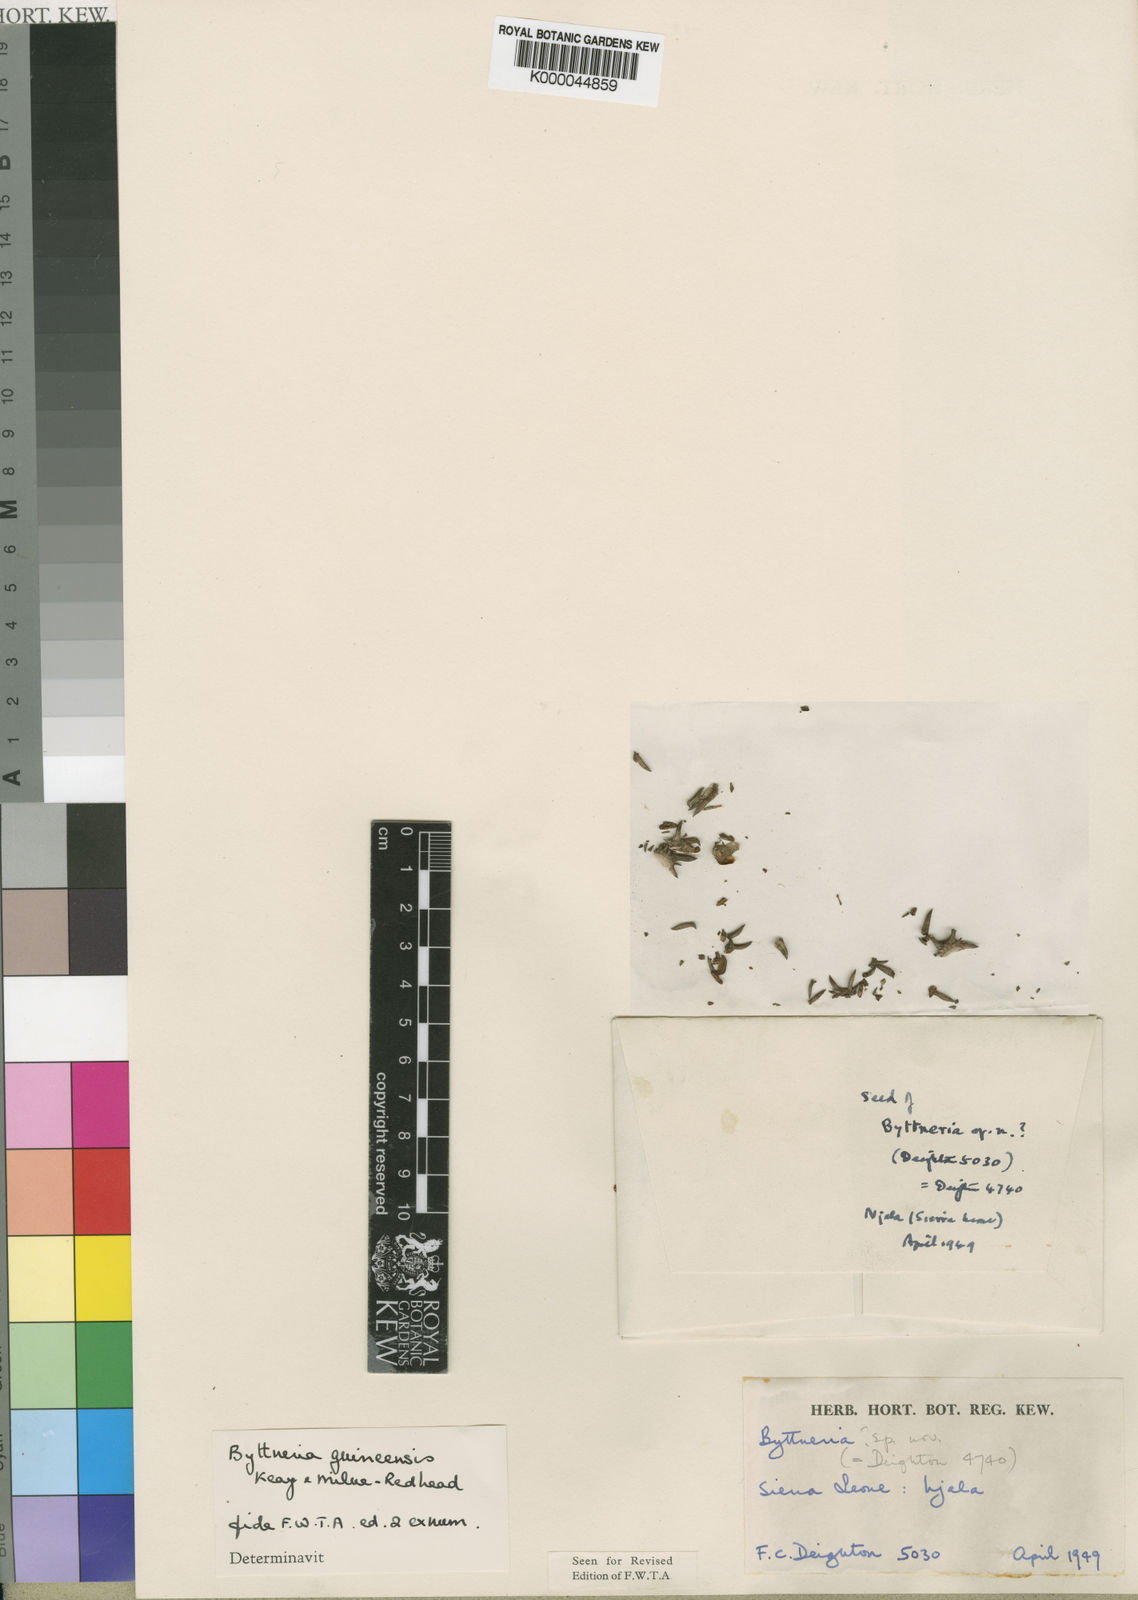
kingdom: Plantae
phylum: Tracheophyta
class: Magnoliopsida
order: Malvales
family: Malvaceae
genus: Byttneria
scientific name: Byttneria guineensis
